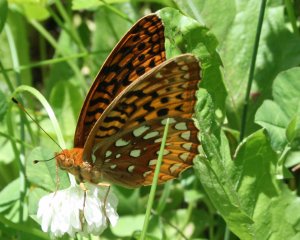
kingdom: Animalia
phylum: Arthropoda
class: Insecta
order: Lepidoptera
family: Nymphalidae
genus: Speyeria
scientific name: Speyeria cybele
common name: Great Spangled Fritillary
